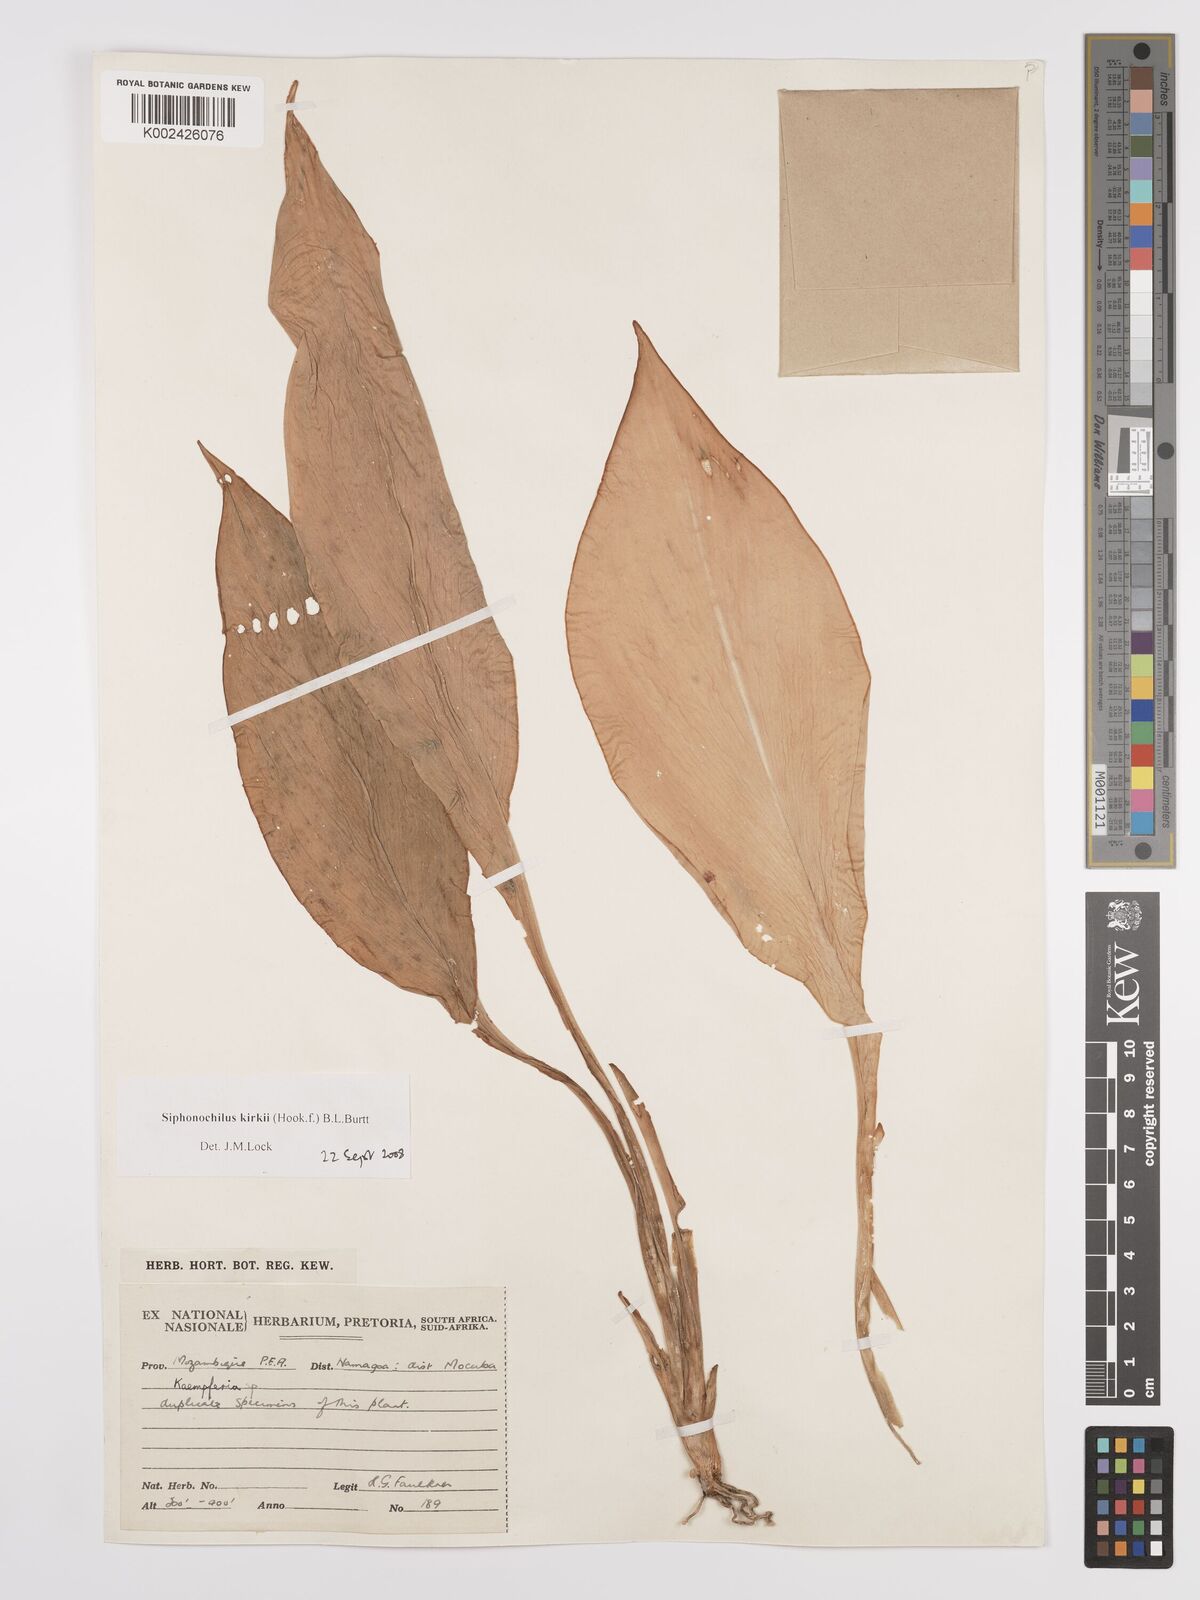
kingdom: Plantae
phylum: Tracheophyta
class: Liliopsida
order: Zingiberales
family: Zingiberaceae
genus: Siphonochilus
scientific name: Siphonochilus kirkii
